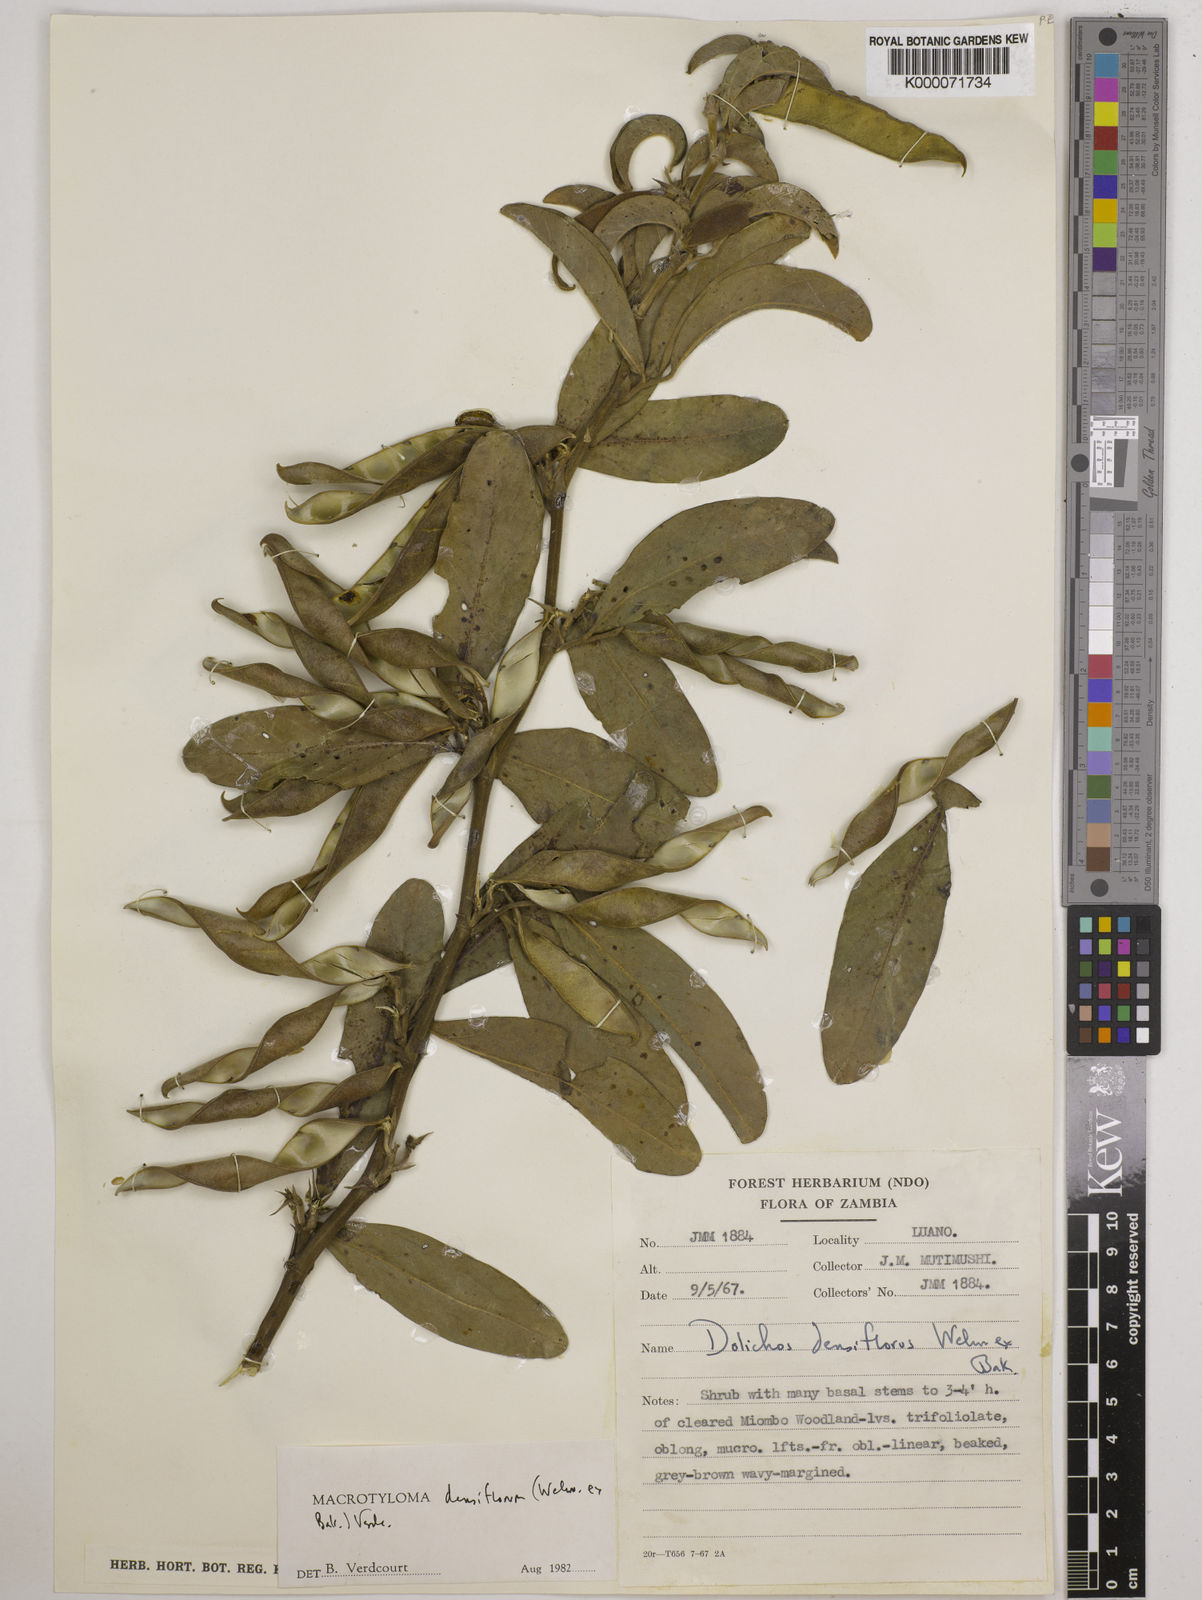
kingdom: Plantae
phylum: Tracheophyta
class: Magnoliopsida
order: Fabales
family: Fabaceae
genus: Macrotyloma
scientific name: Macrotyloma densiflorum
